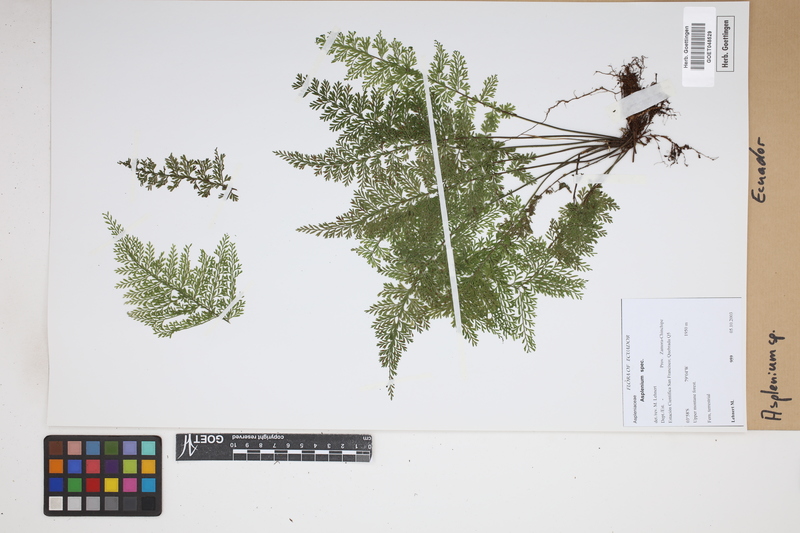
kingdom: Plantae
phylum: Tracheophyta
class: Polypodiopsida
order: Polypodiales
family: Aspleniaceae
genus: Asplenium
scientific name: Asplenium
